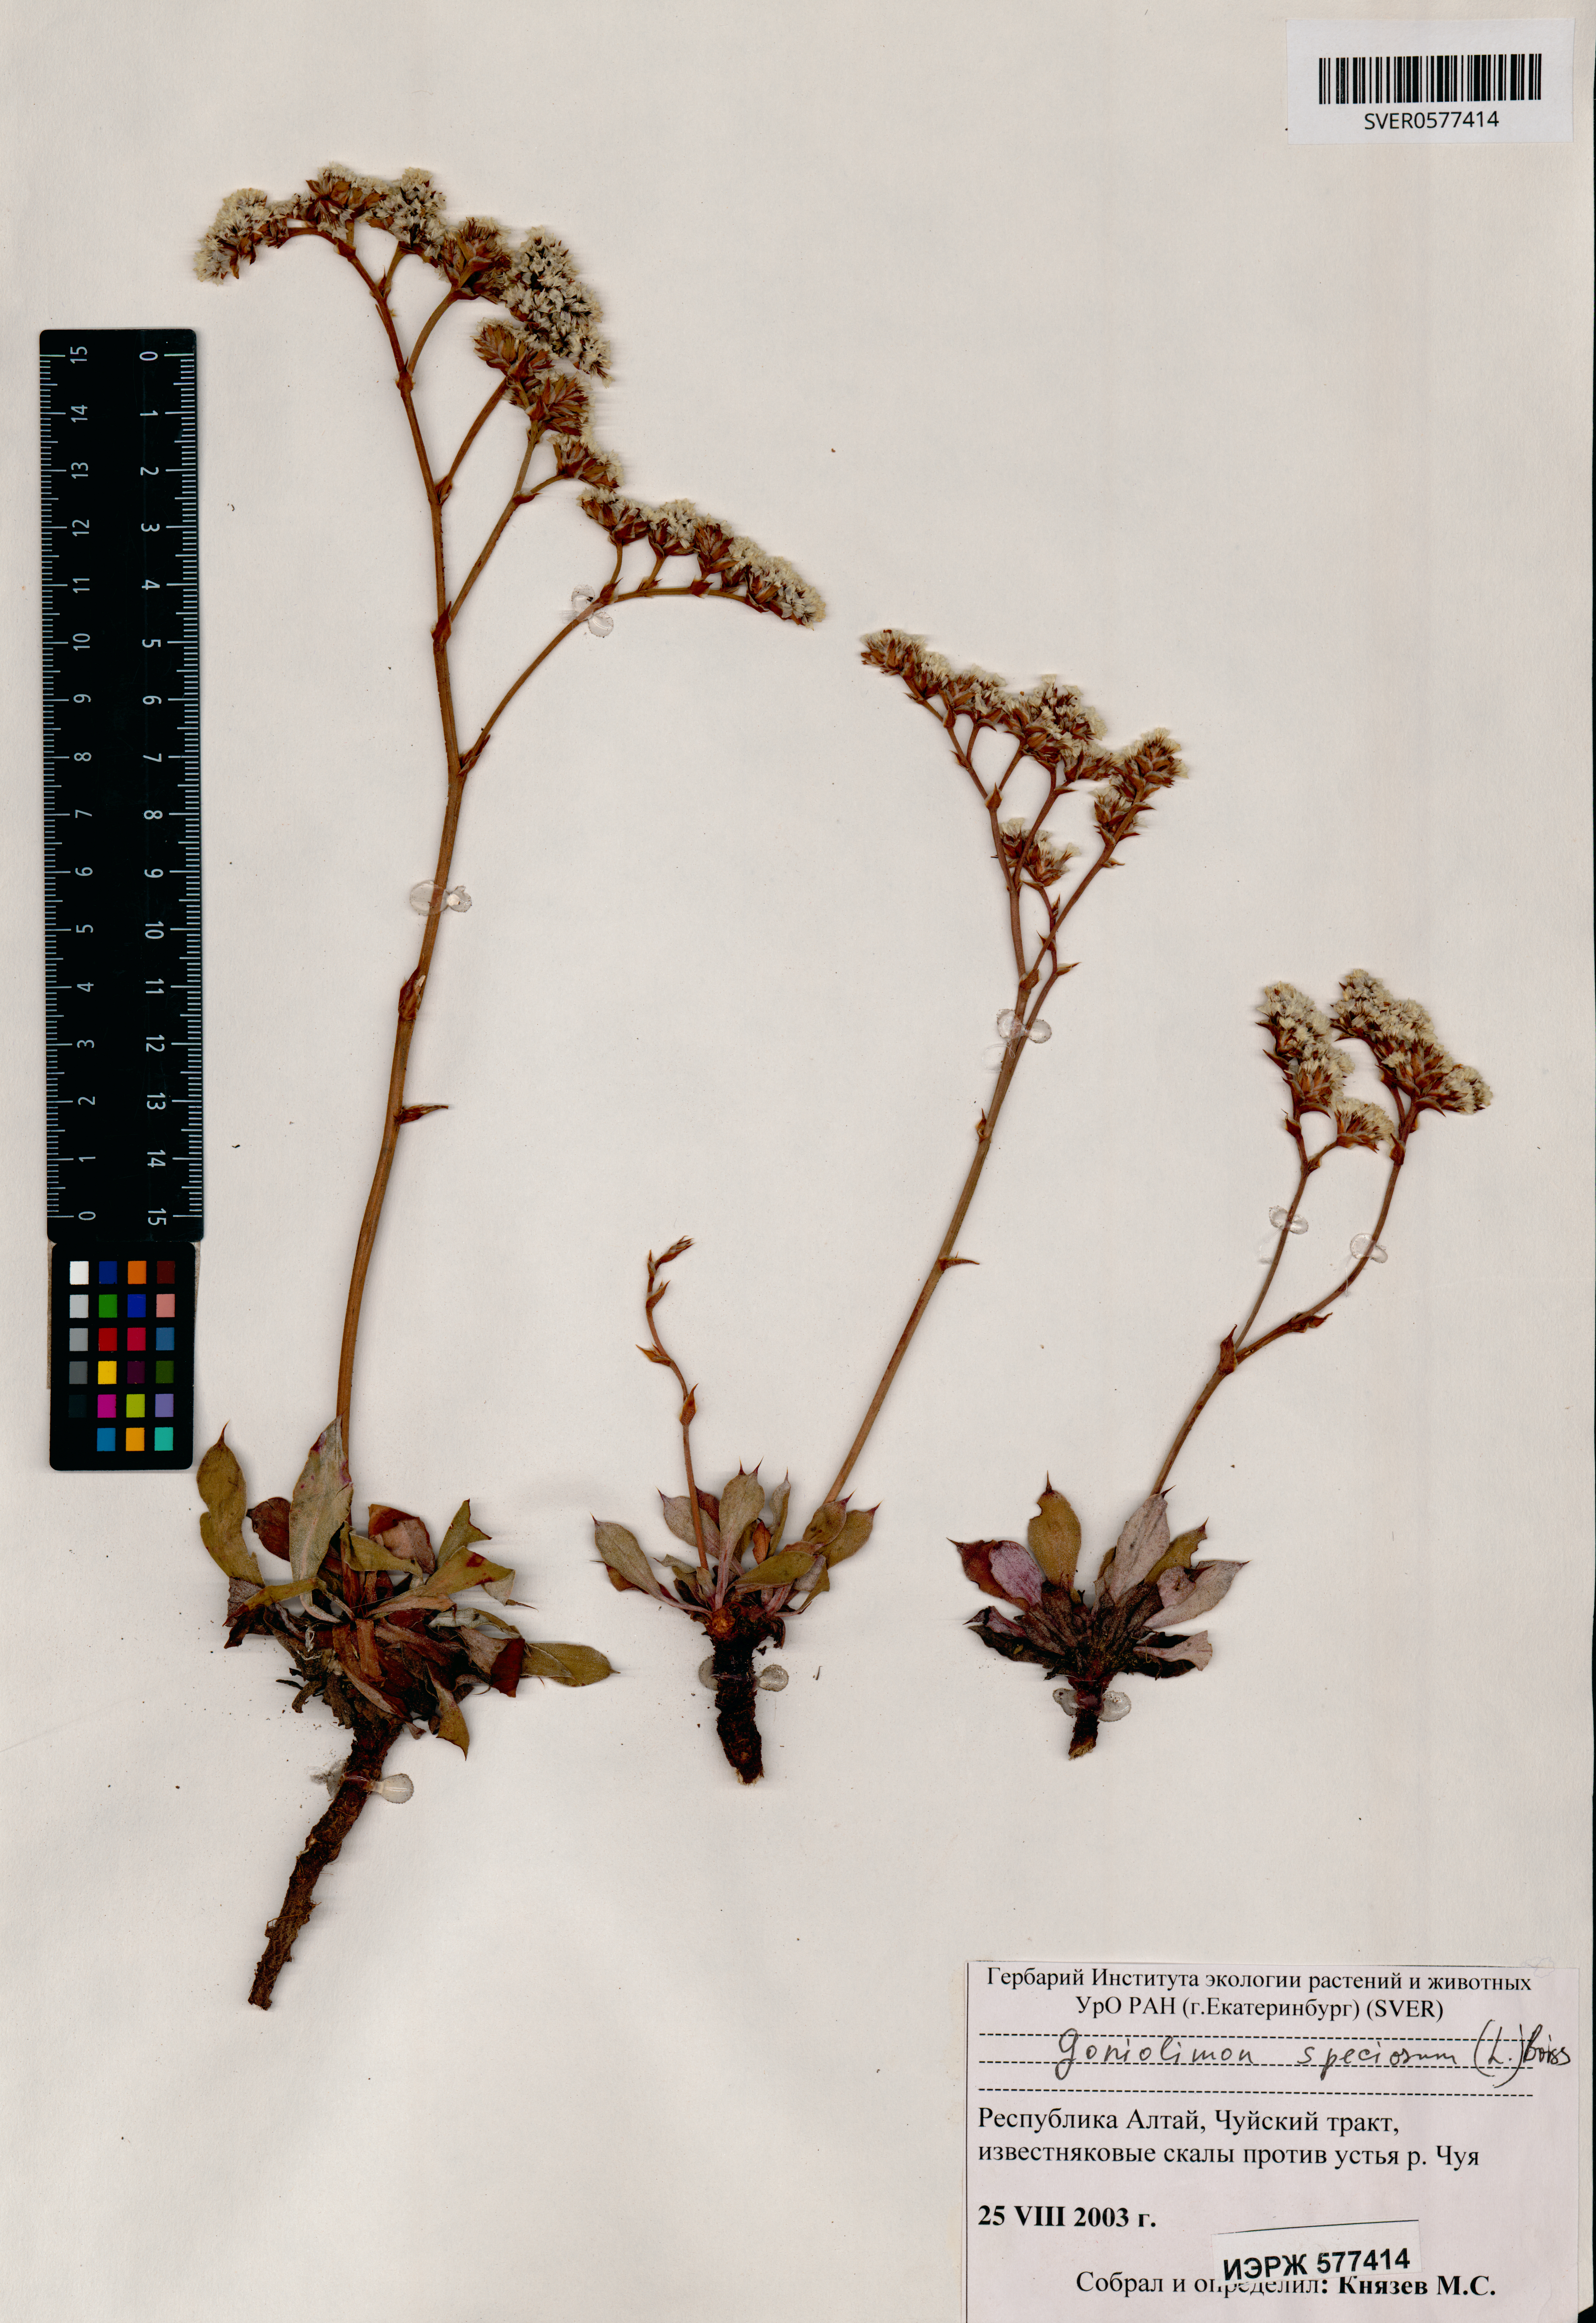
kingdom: Plantae
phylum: Tracheophyta
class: Magnoliopsida
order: Caryophyllales
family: Plumbaginaceae
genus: Goniolimon
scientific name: Goniolimon speciosum
